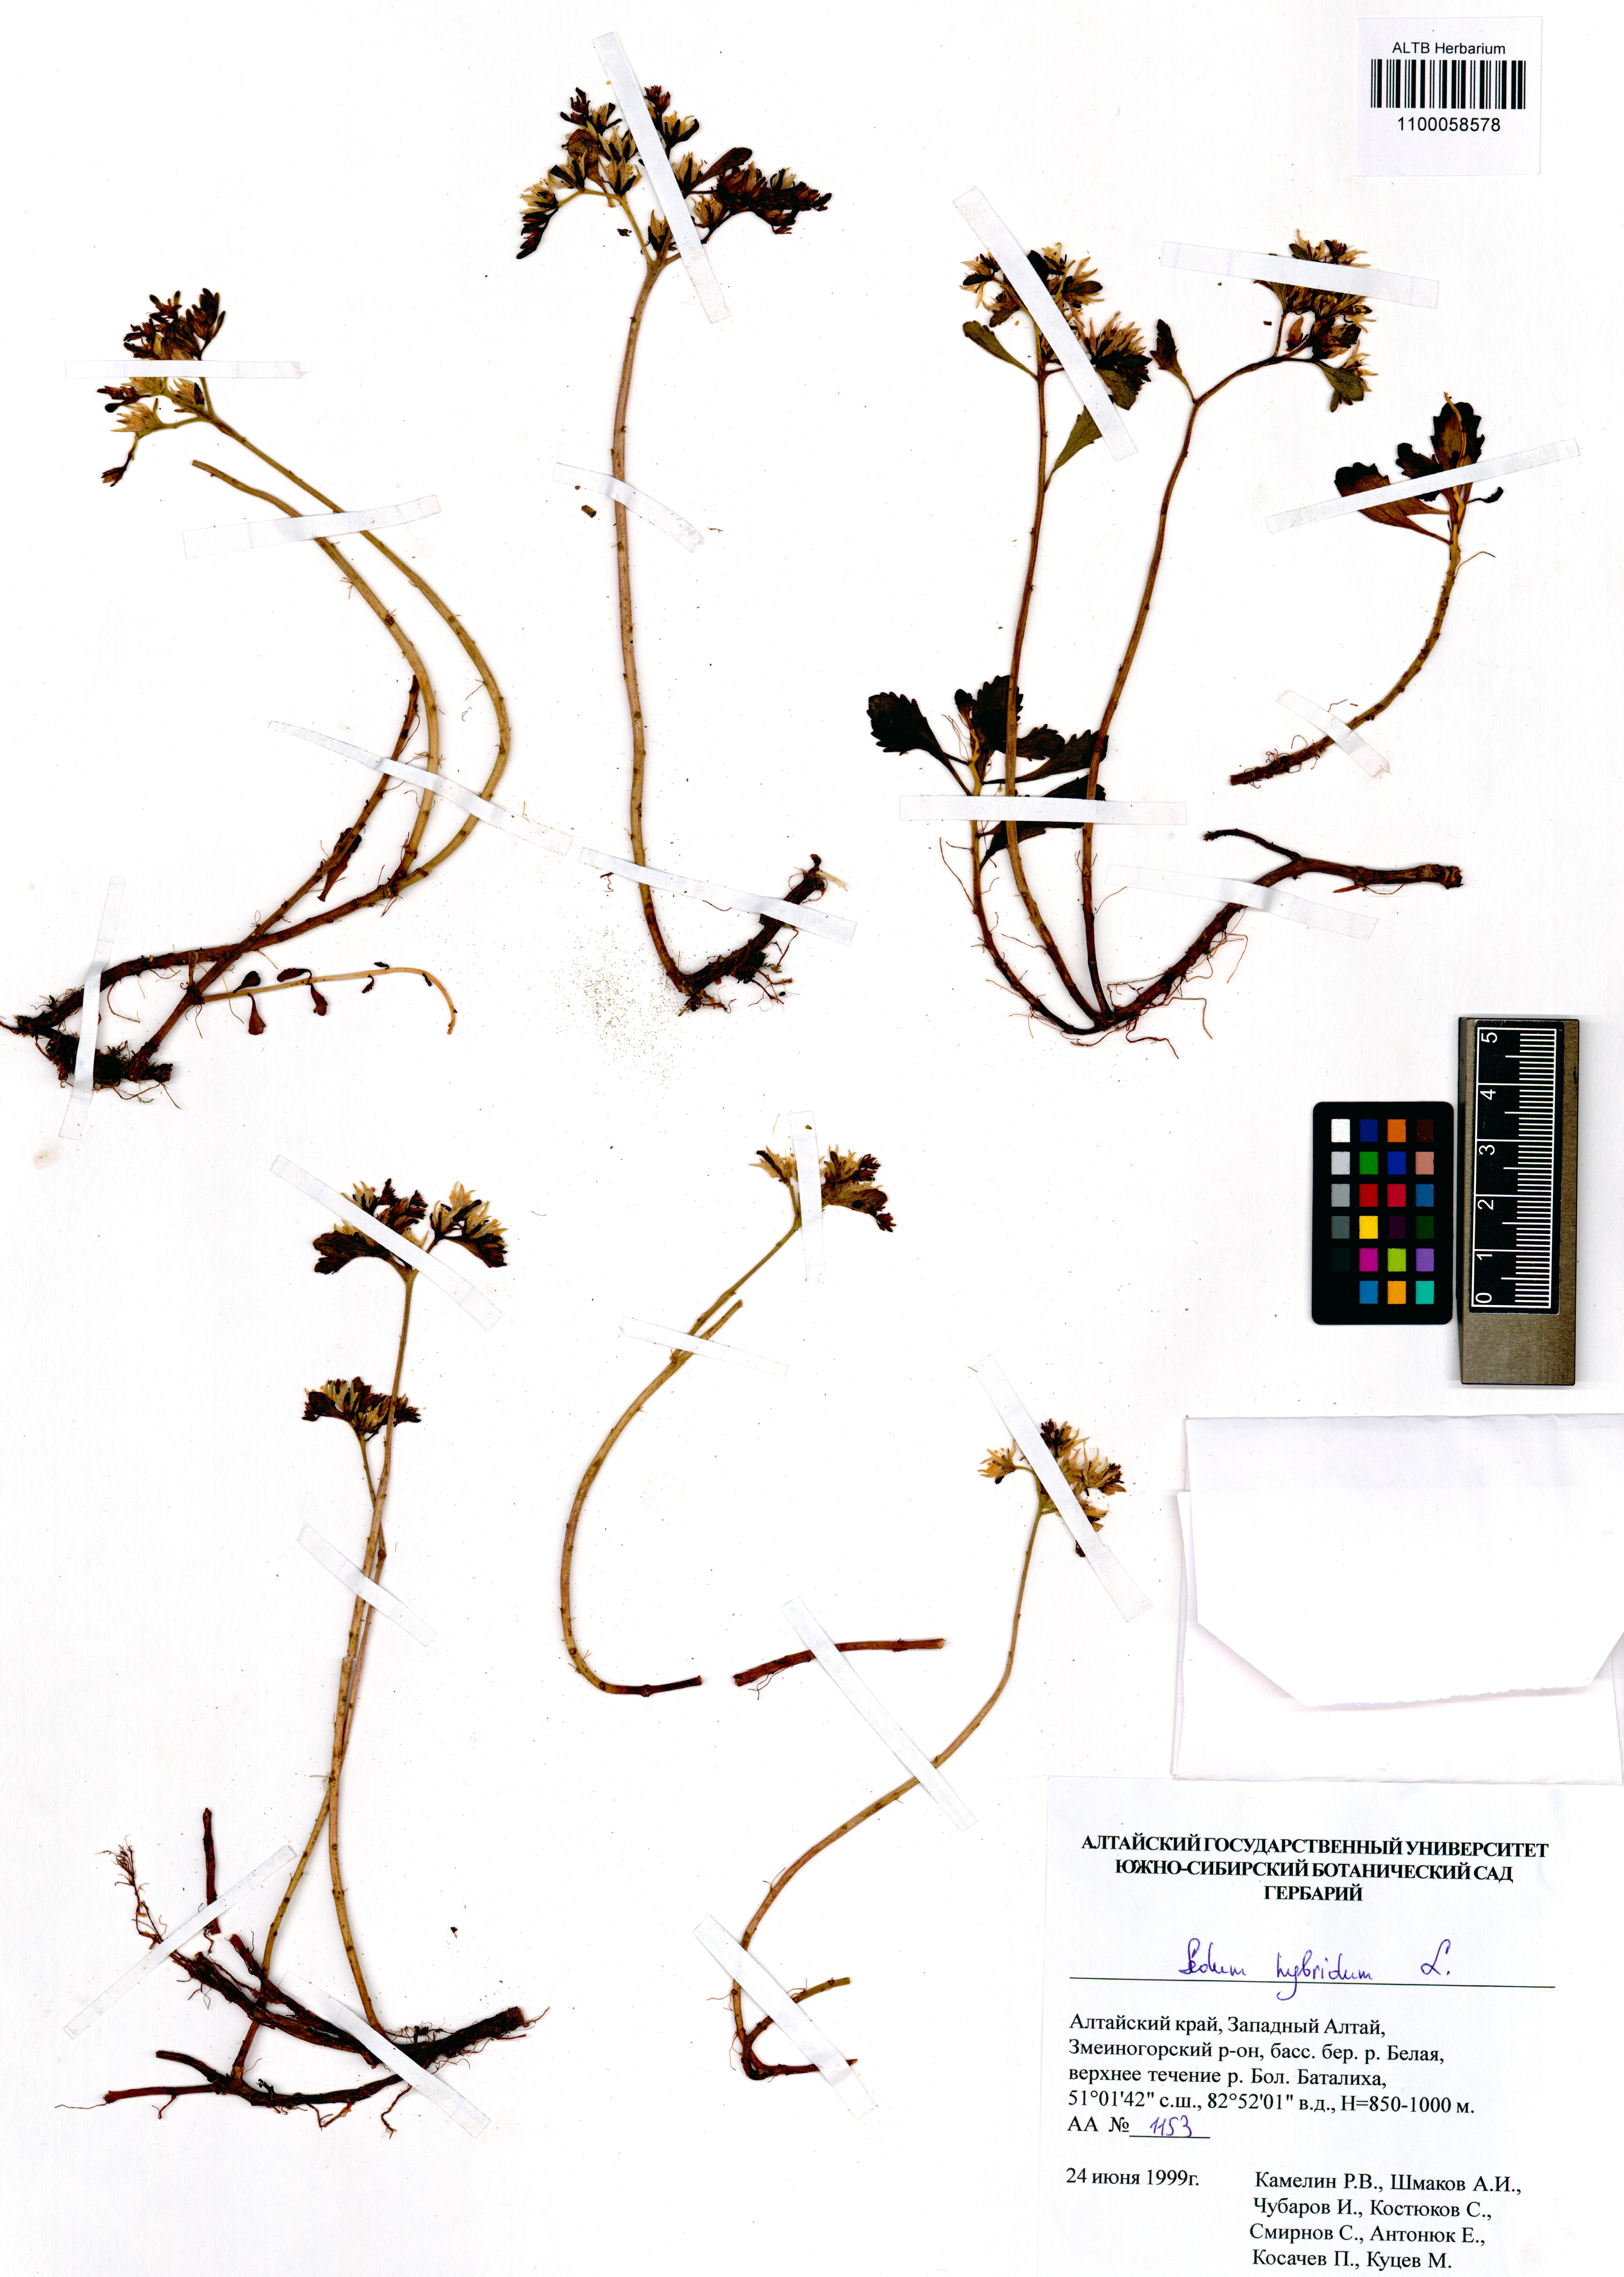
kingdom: Plantae
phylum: Tracheophyta
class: Magnoliopsida
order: Saxifragales
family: Crassulaceae
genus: Phedimus
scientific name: Phedimus hybridus
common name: Hybrid stonecrop
